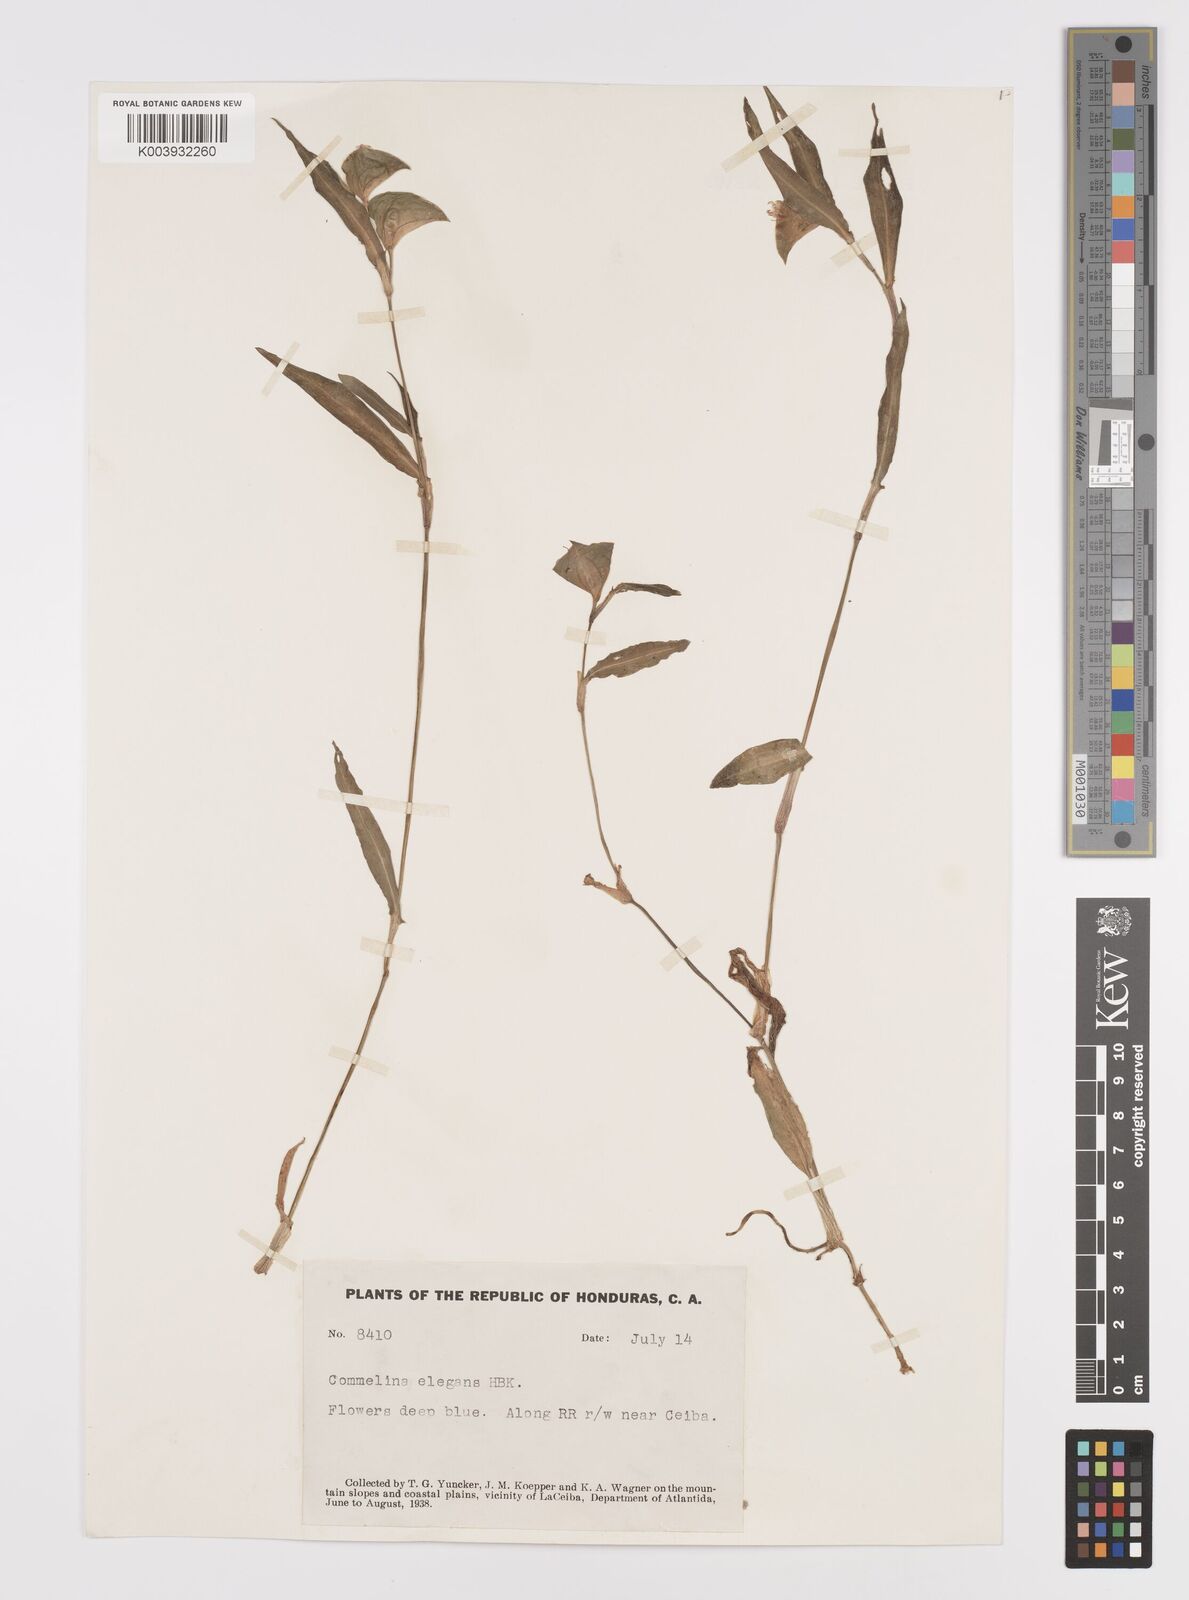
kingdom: Plantae
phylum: Tracheophyta
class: Liliopsida
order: Commelinales
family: Commelinaceae
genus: Commelina
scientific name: Commelina erecta
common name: Blousel blommetjie
